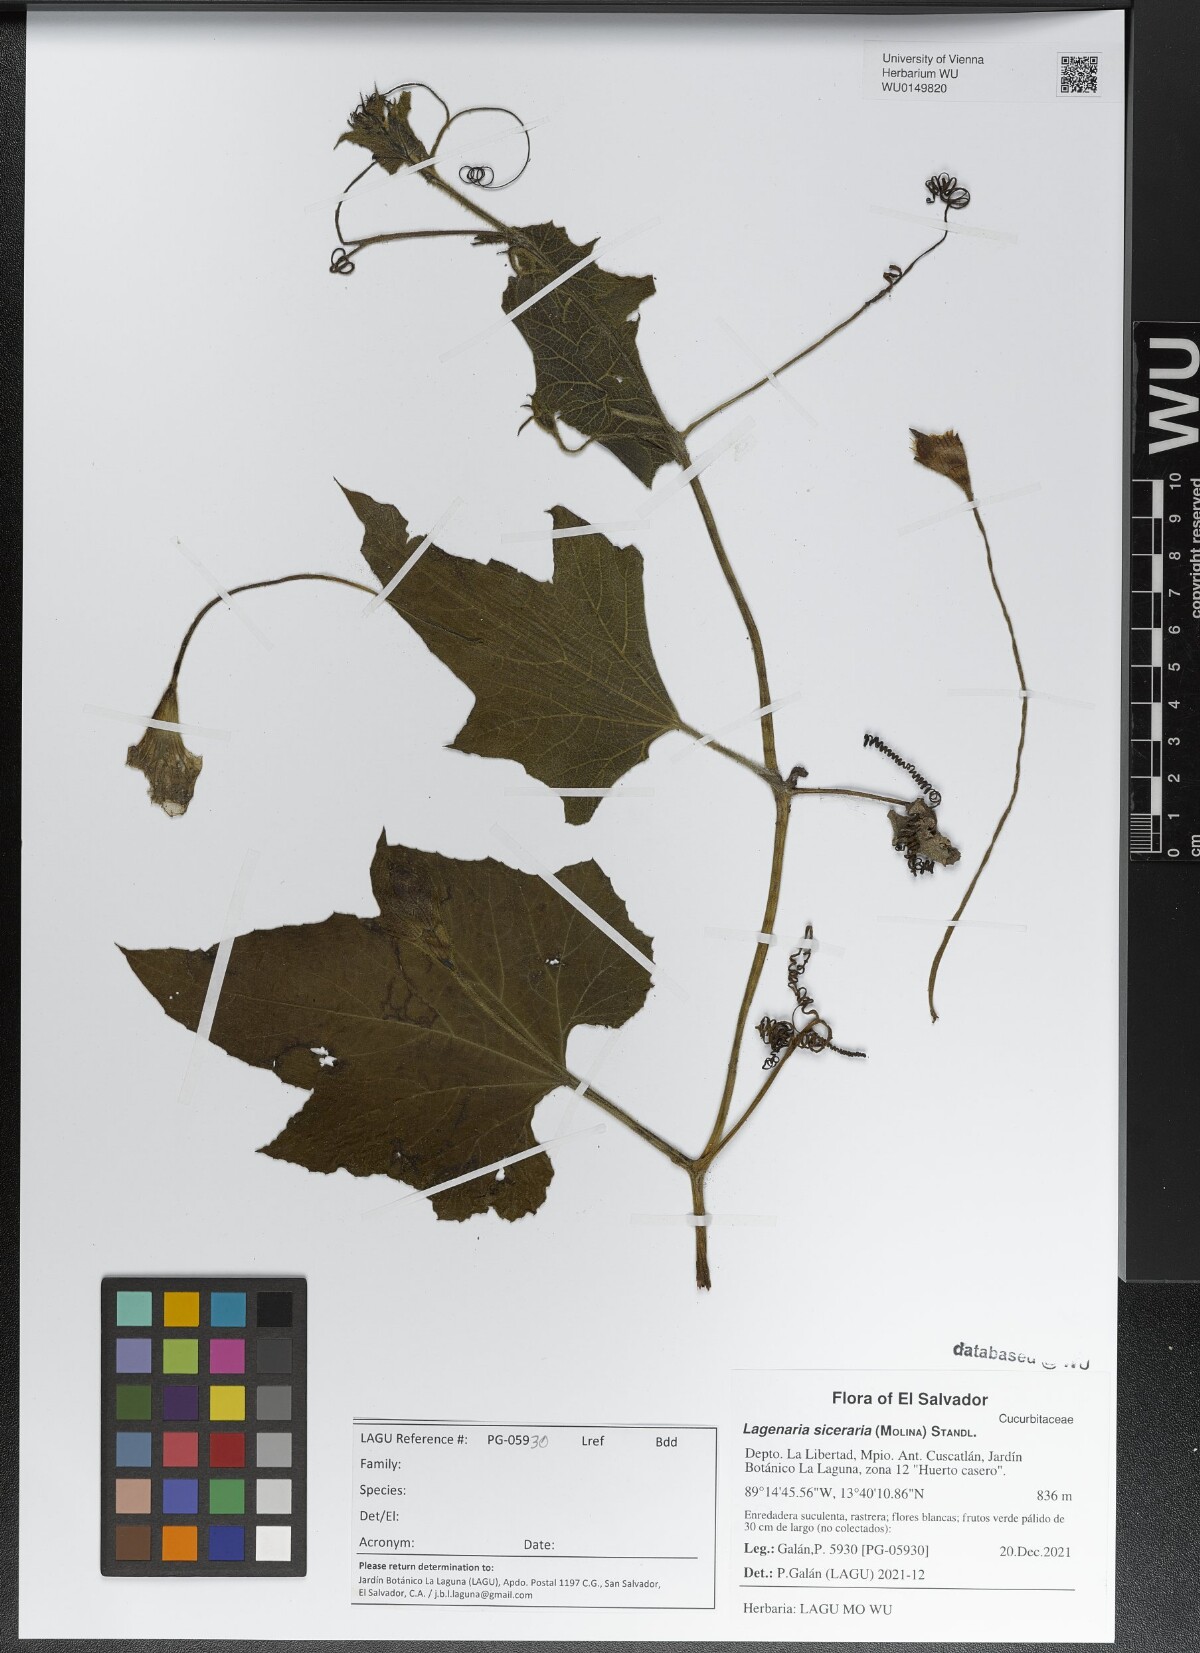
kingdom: Plantae
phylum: Tracheophyta
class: Magnoliopsida
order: Cucurbitales
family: Cucurbitaceae
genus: Lagenaria
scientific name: Lagenaria siceraria
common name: Bottle gourd
